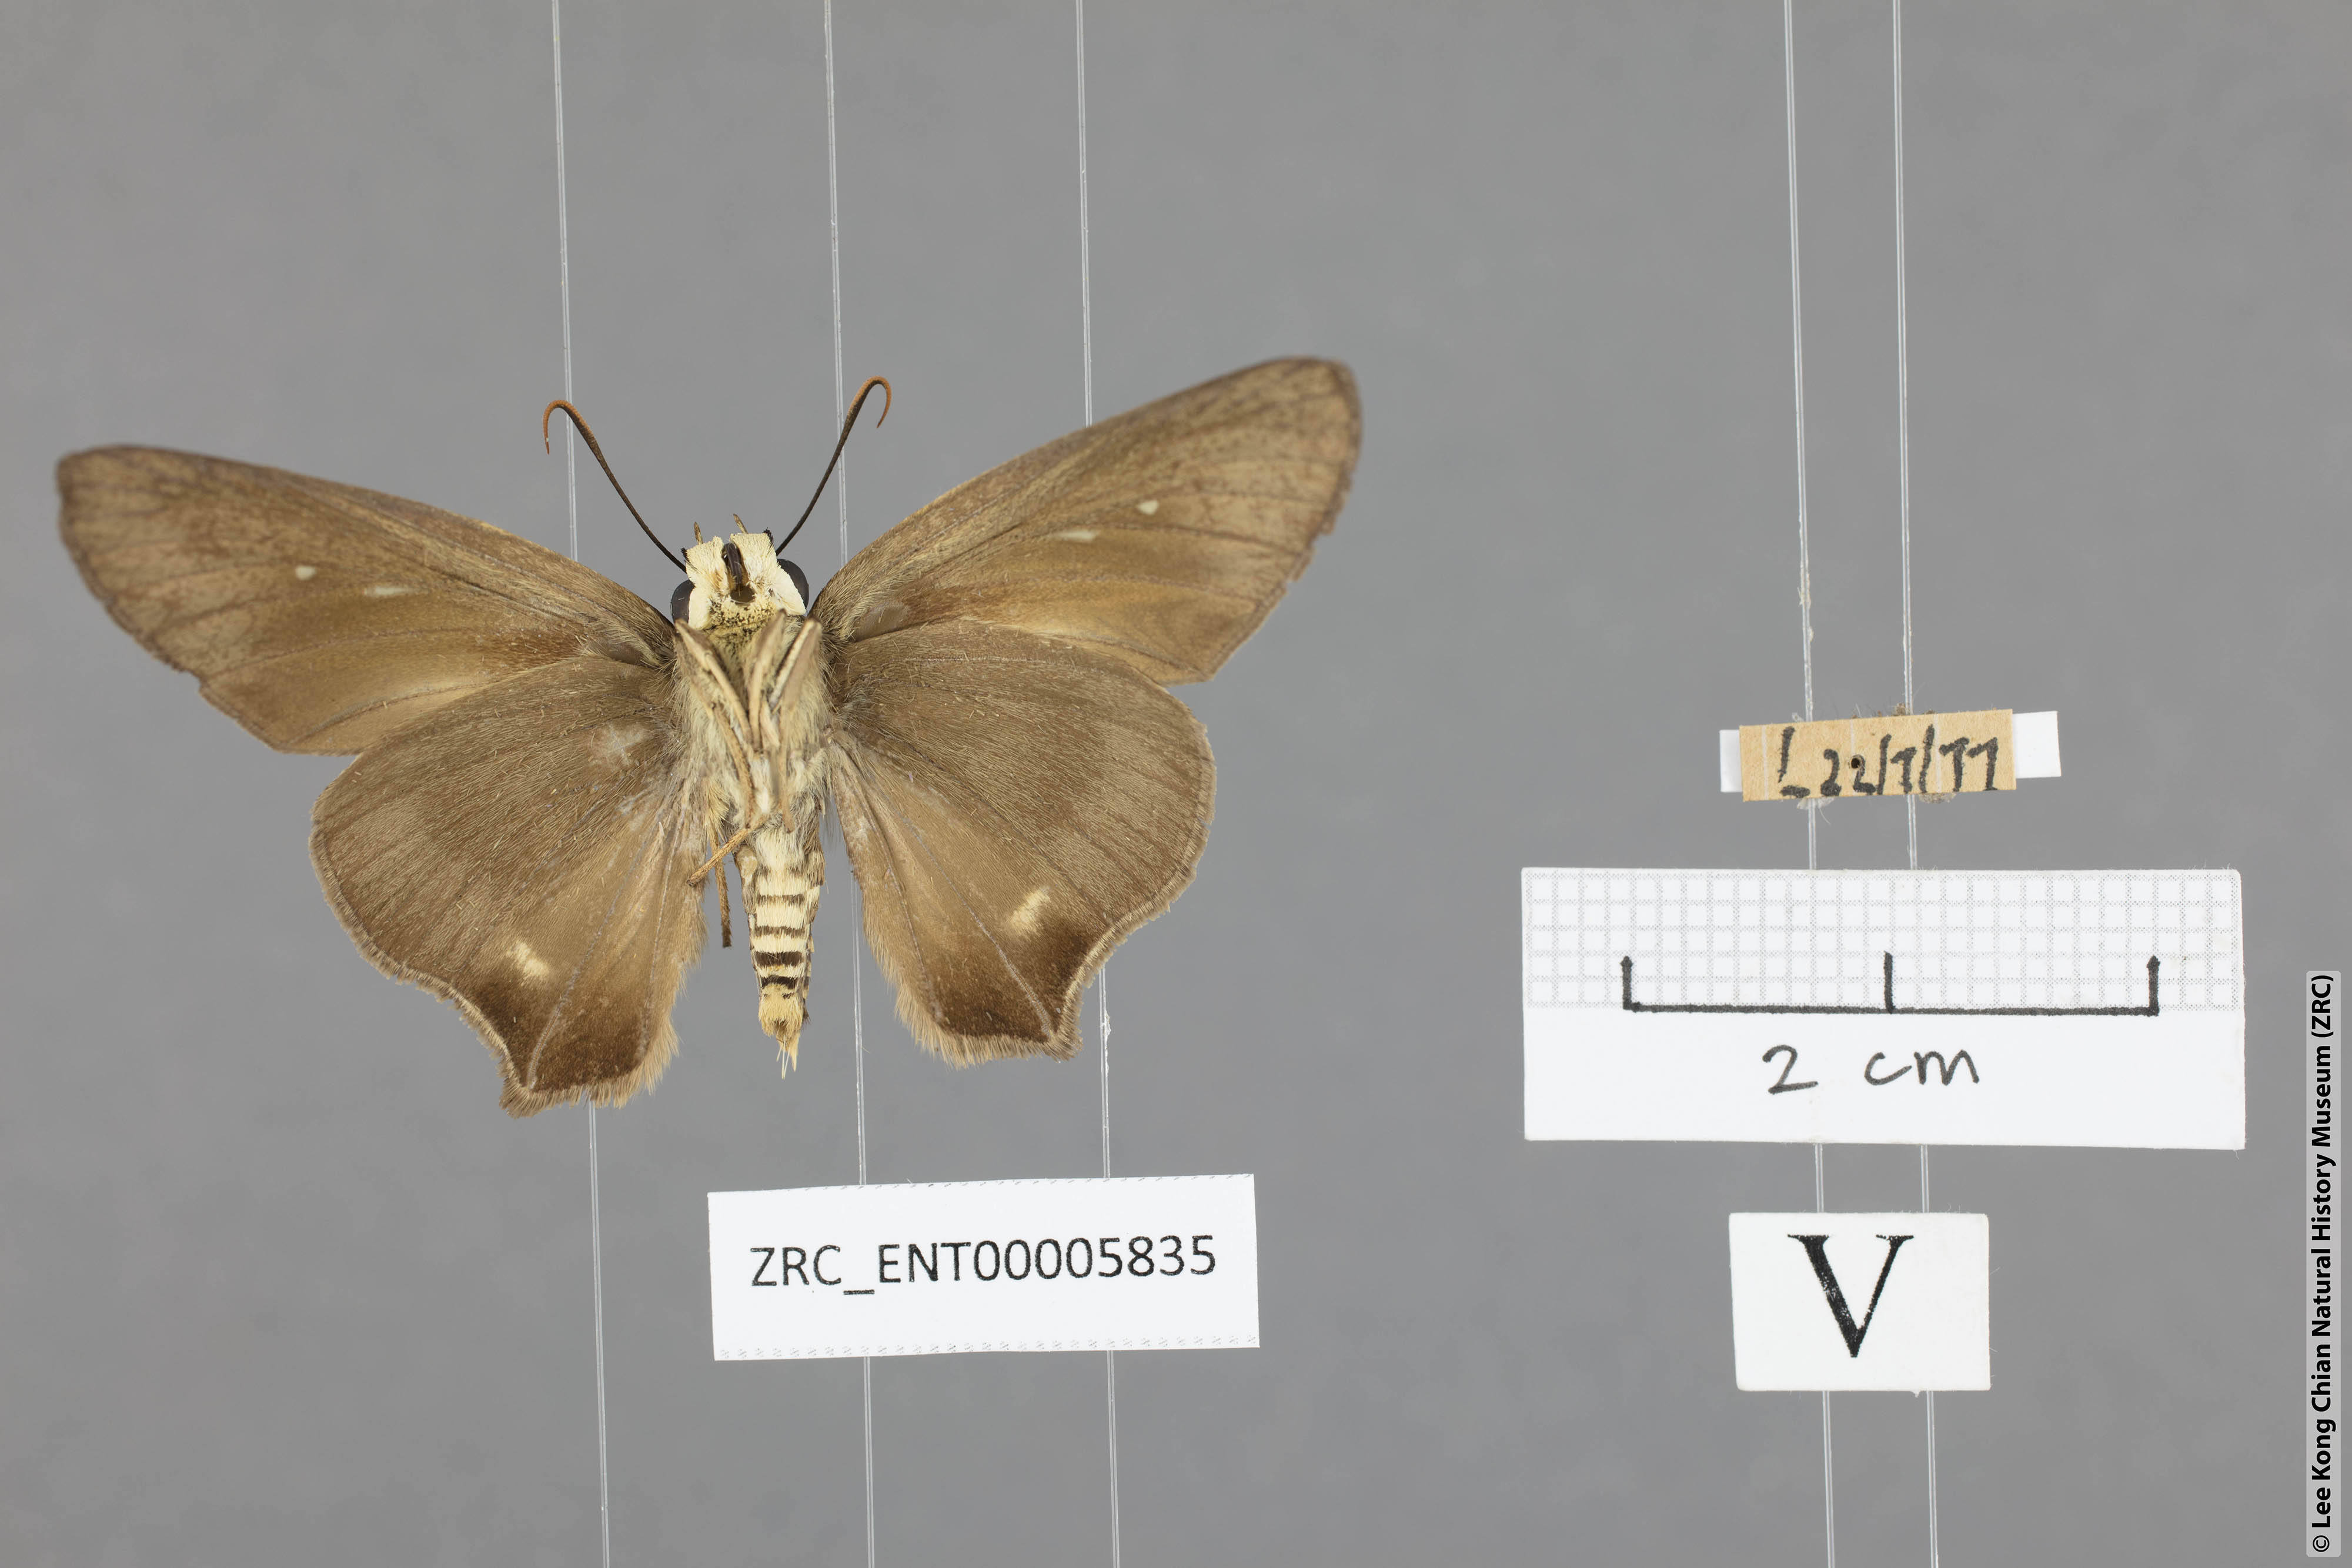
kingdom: Animalia
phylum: Arthropoda
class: Insecta
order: Lepidoptera
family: Hesperiidae
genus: Badamia
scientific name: Badamia exclamationis
